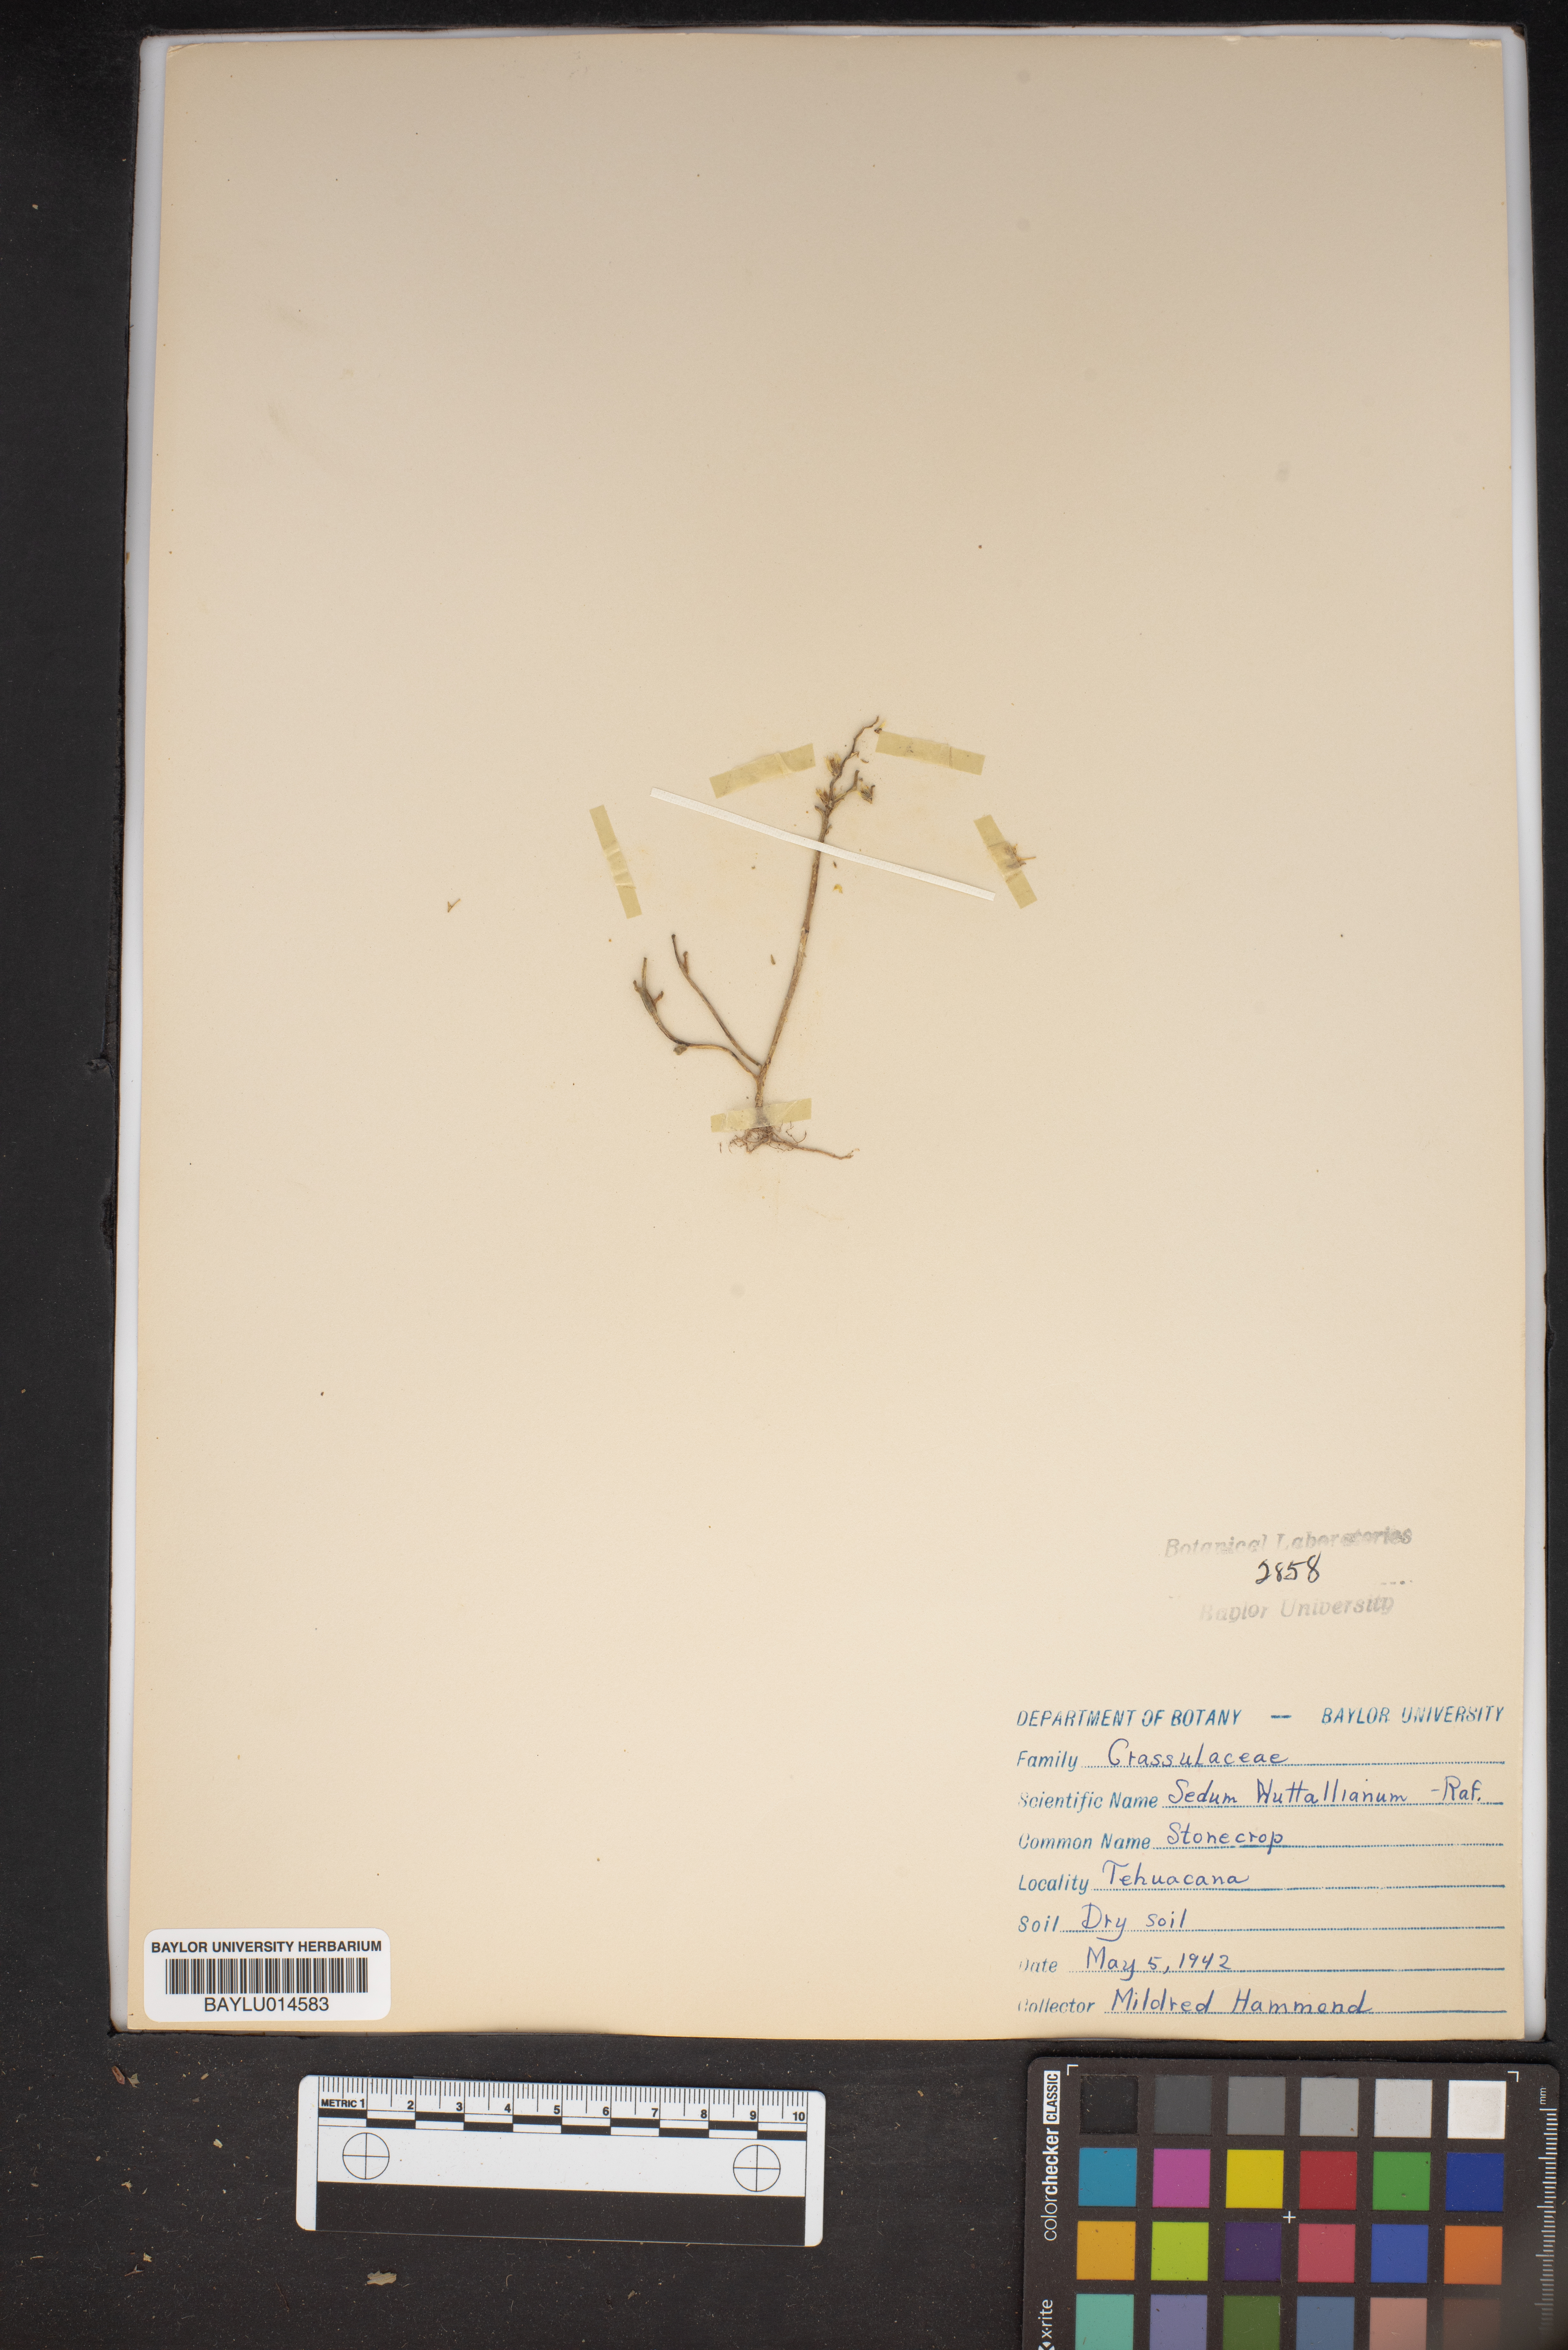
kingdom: Plantae
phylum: Tracheophyta
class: Magnoliopsida
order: Saxifragales
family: Crassulaceae
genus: Sedum
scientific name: Sedum nuttallii
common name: Yellow stonecrop
